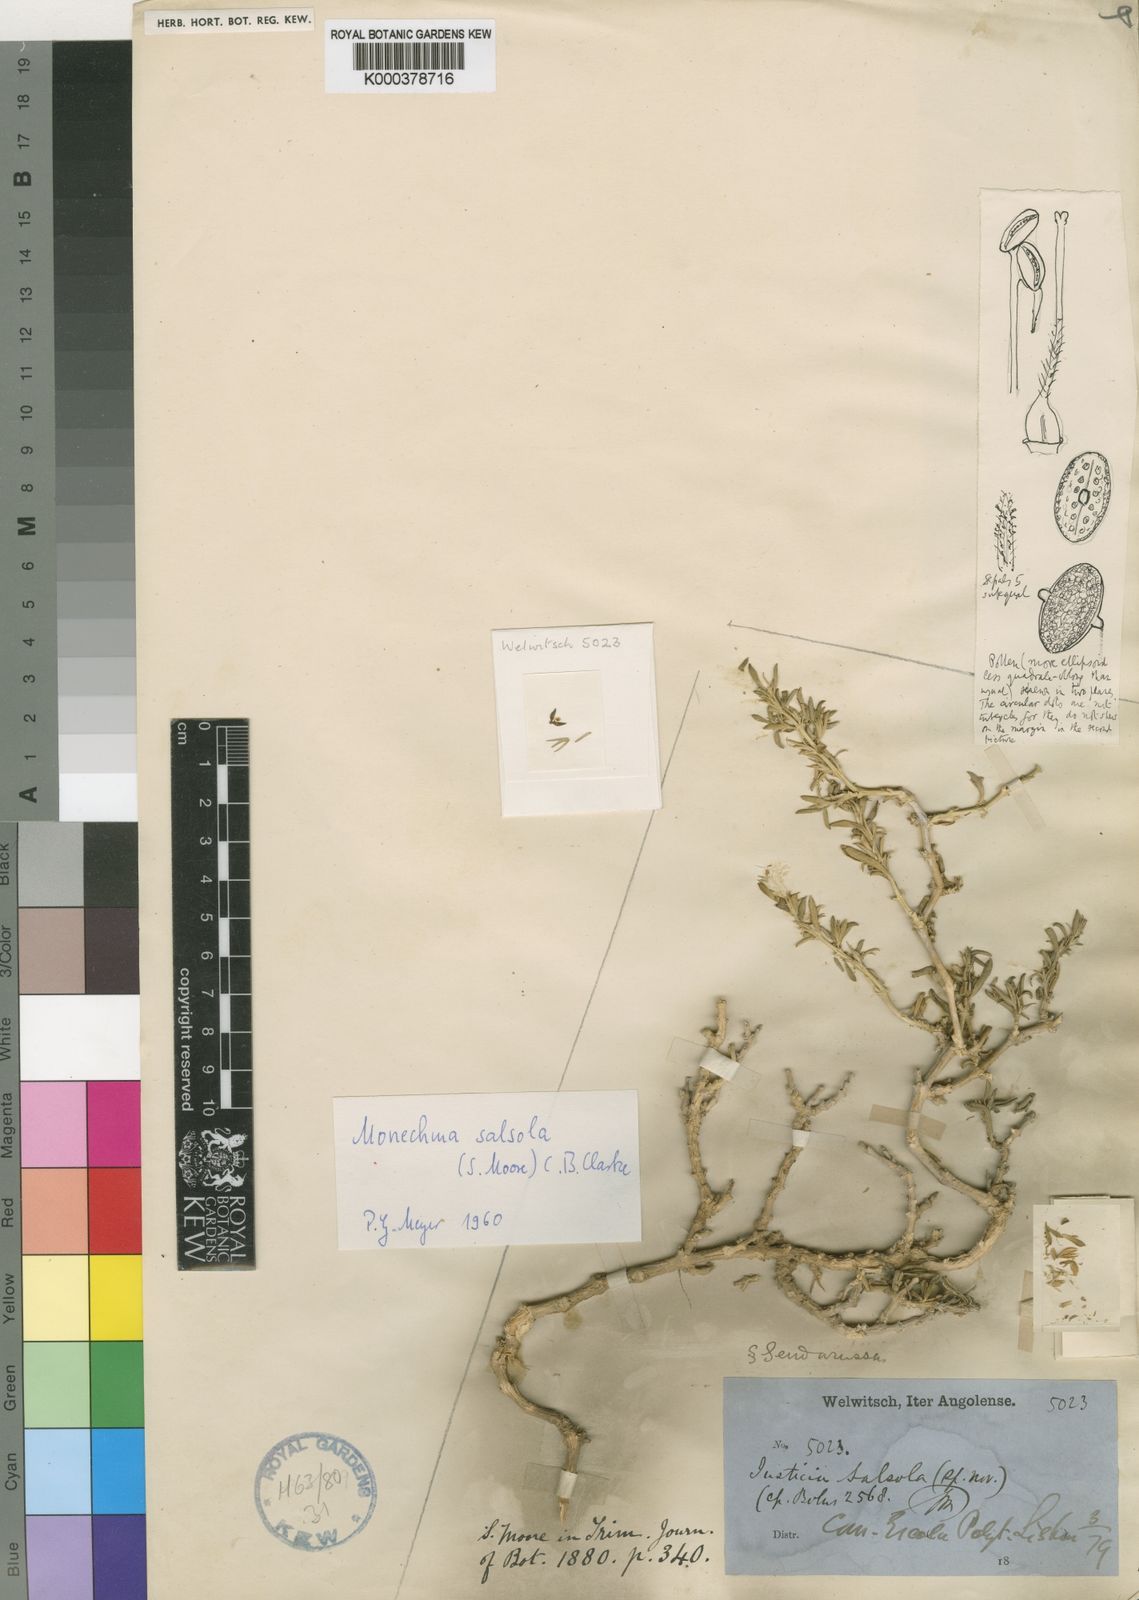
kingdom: Plantae
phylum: Tracheophyta
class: Magnoliopsida
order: Lamiales
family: Acanthaceae
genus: Monechma
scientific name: Monechma salsola
